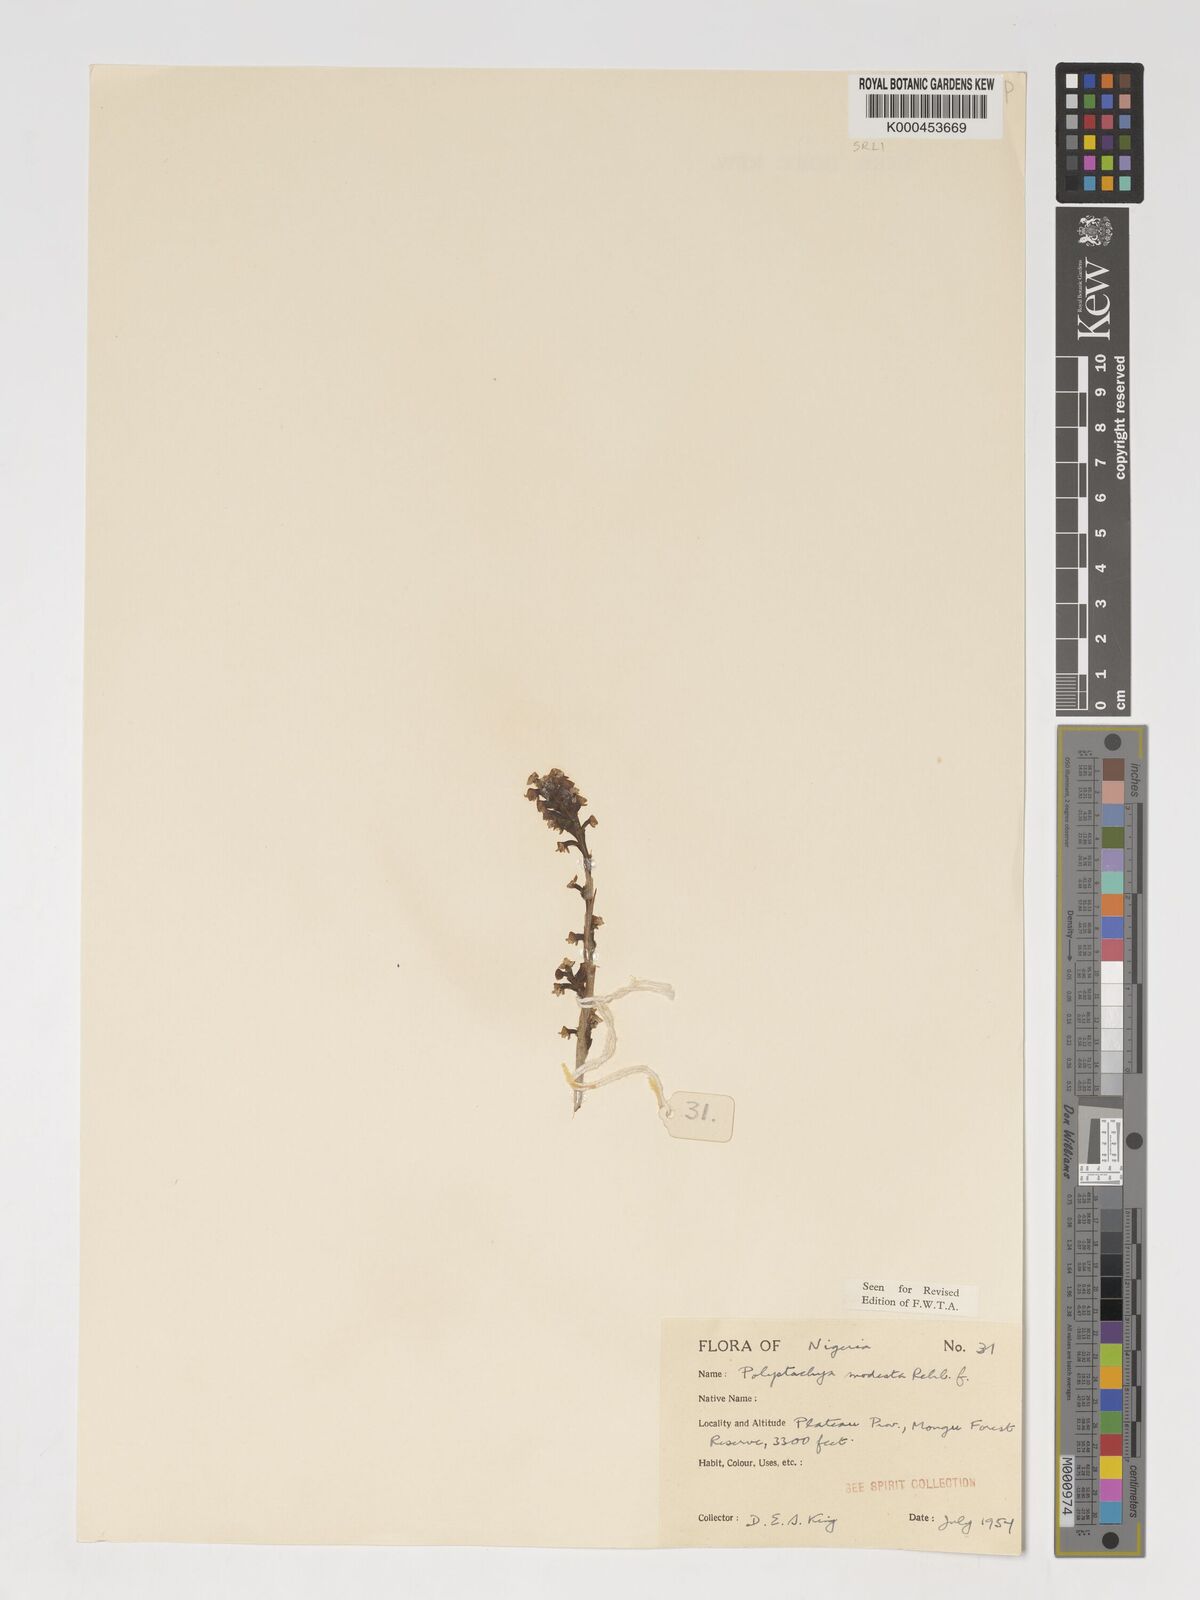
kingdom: Plantae
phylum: Tracheophyta
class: Liliopsida
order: Asparagales
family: Orchidaceae
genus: Polystachya
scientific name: Polystachya modesta
